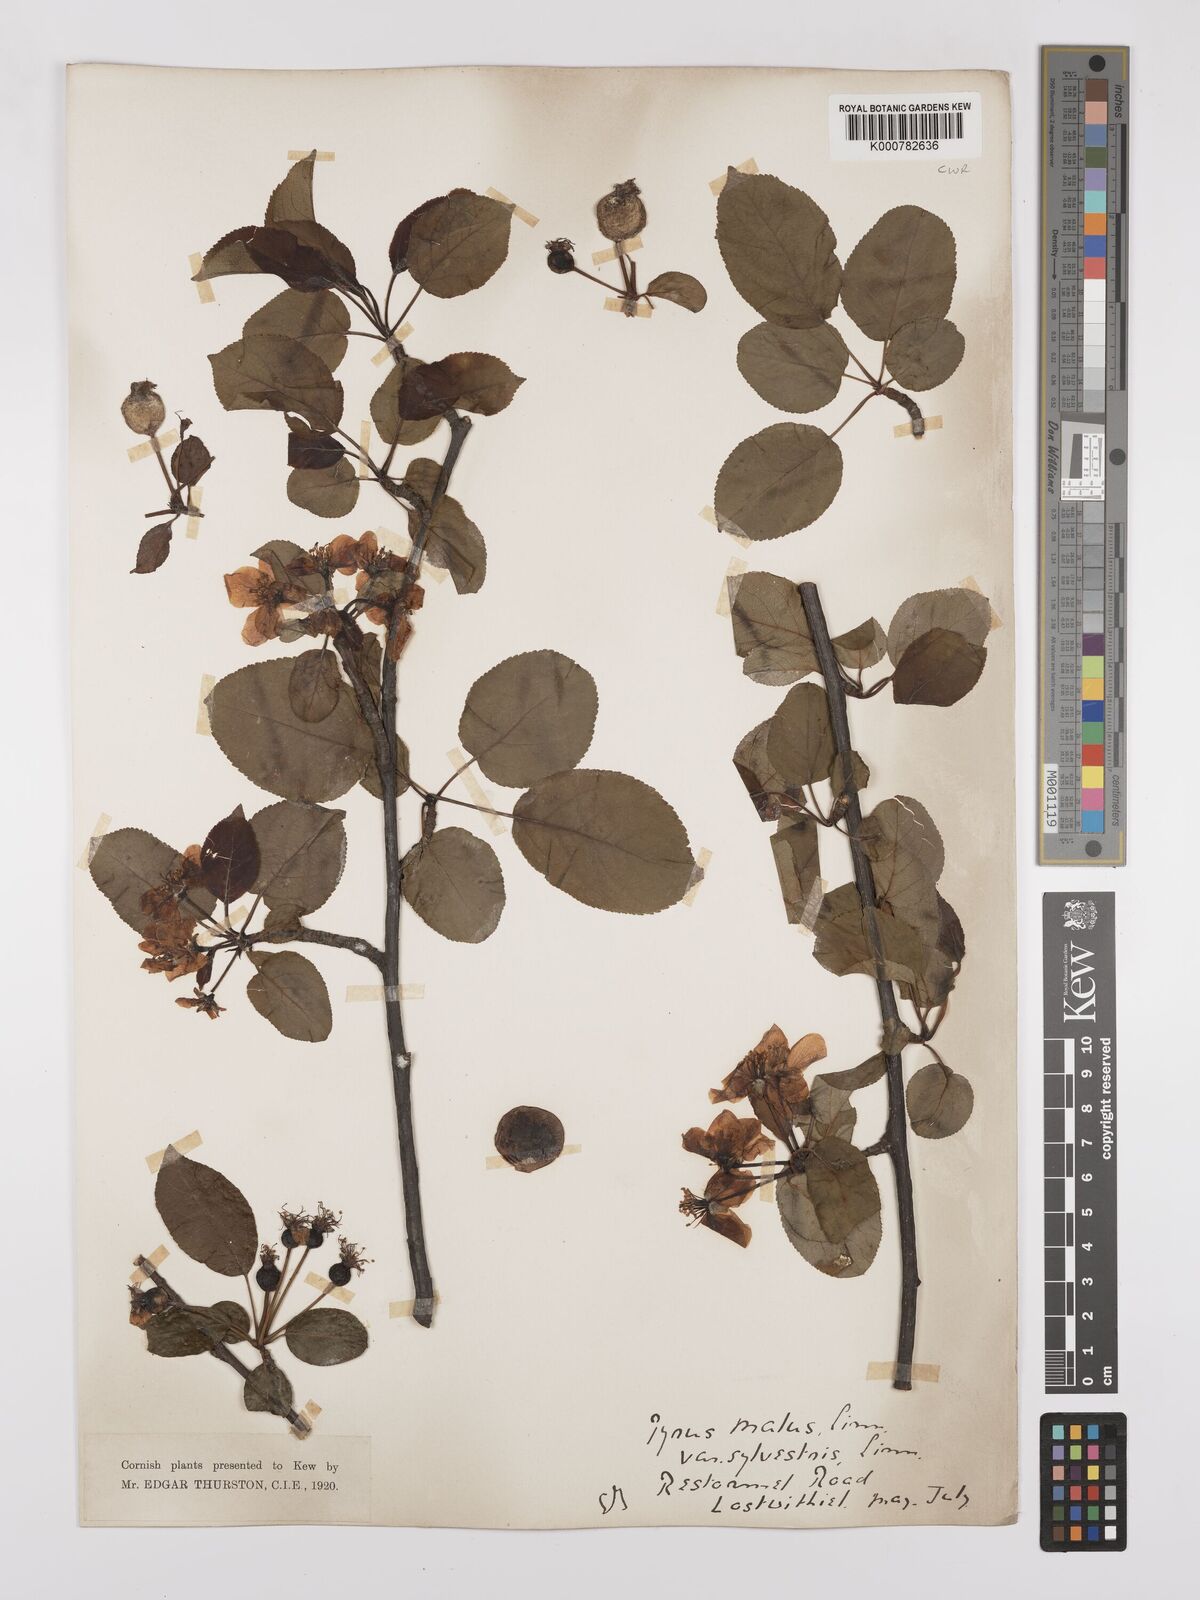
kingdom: Plantae
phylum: Tracheophyta
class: Magnoliopsida
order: Rosales
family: Rosaceae
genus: Malus
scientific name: Malus sylvestris
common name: Crab apple
